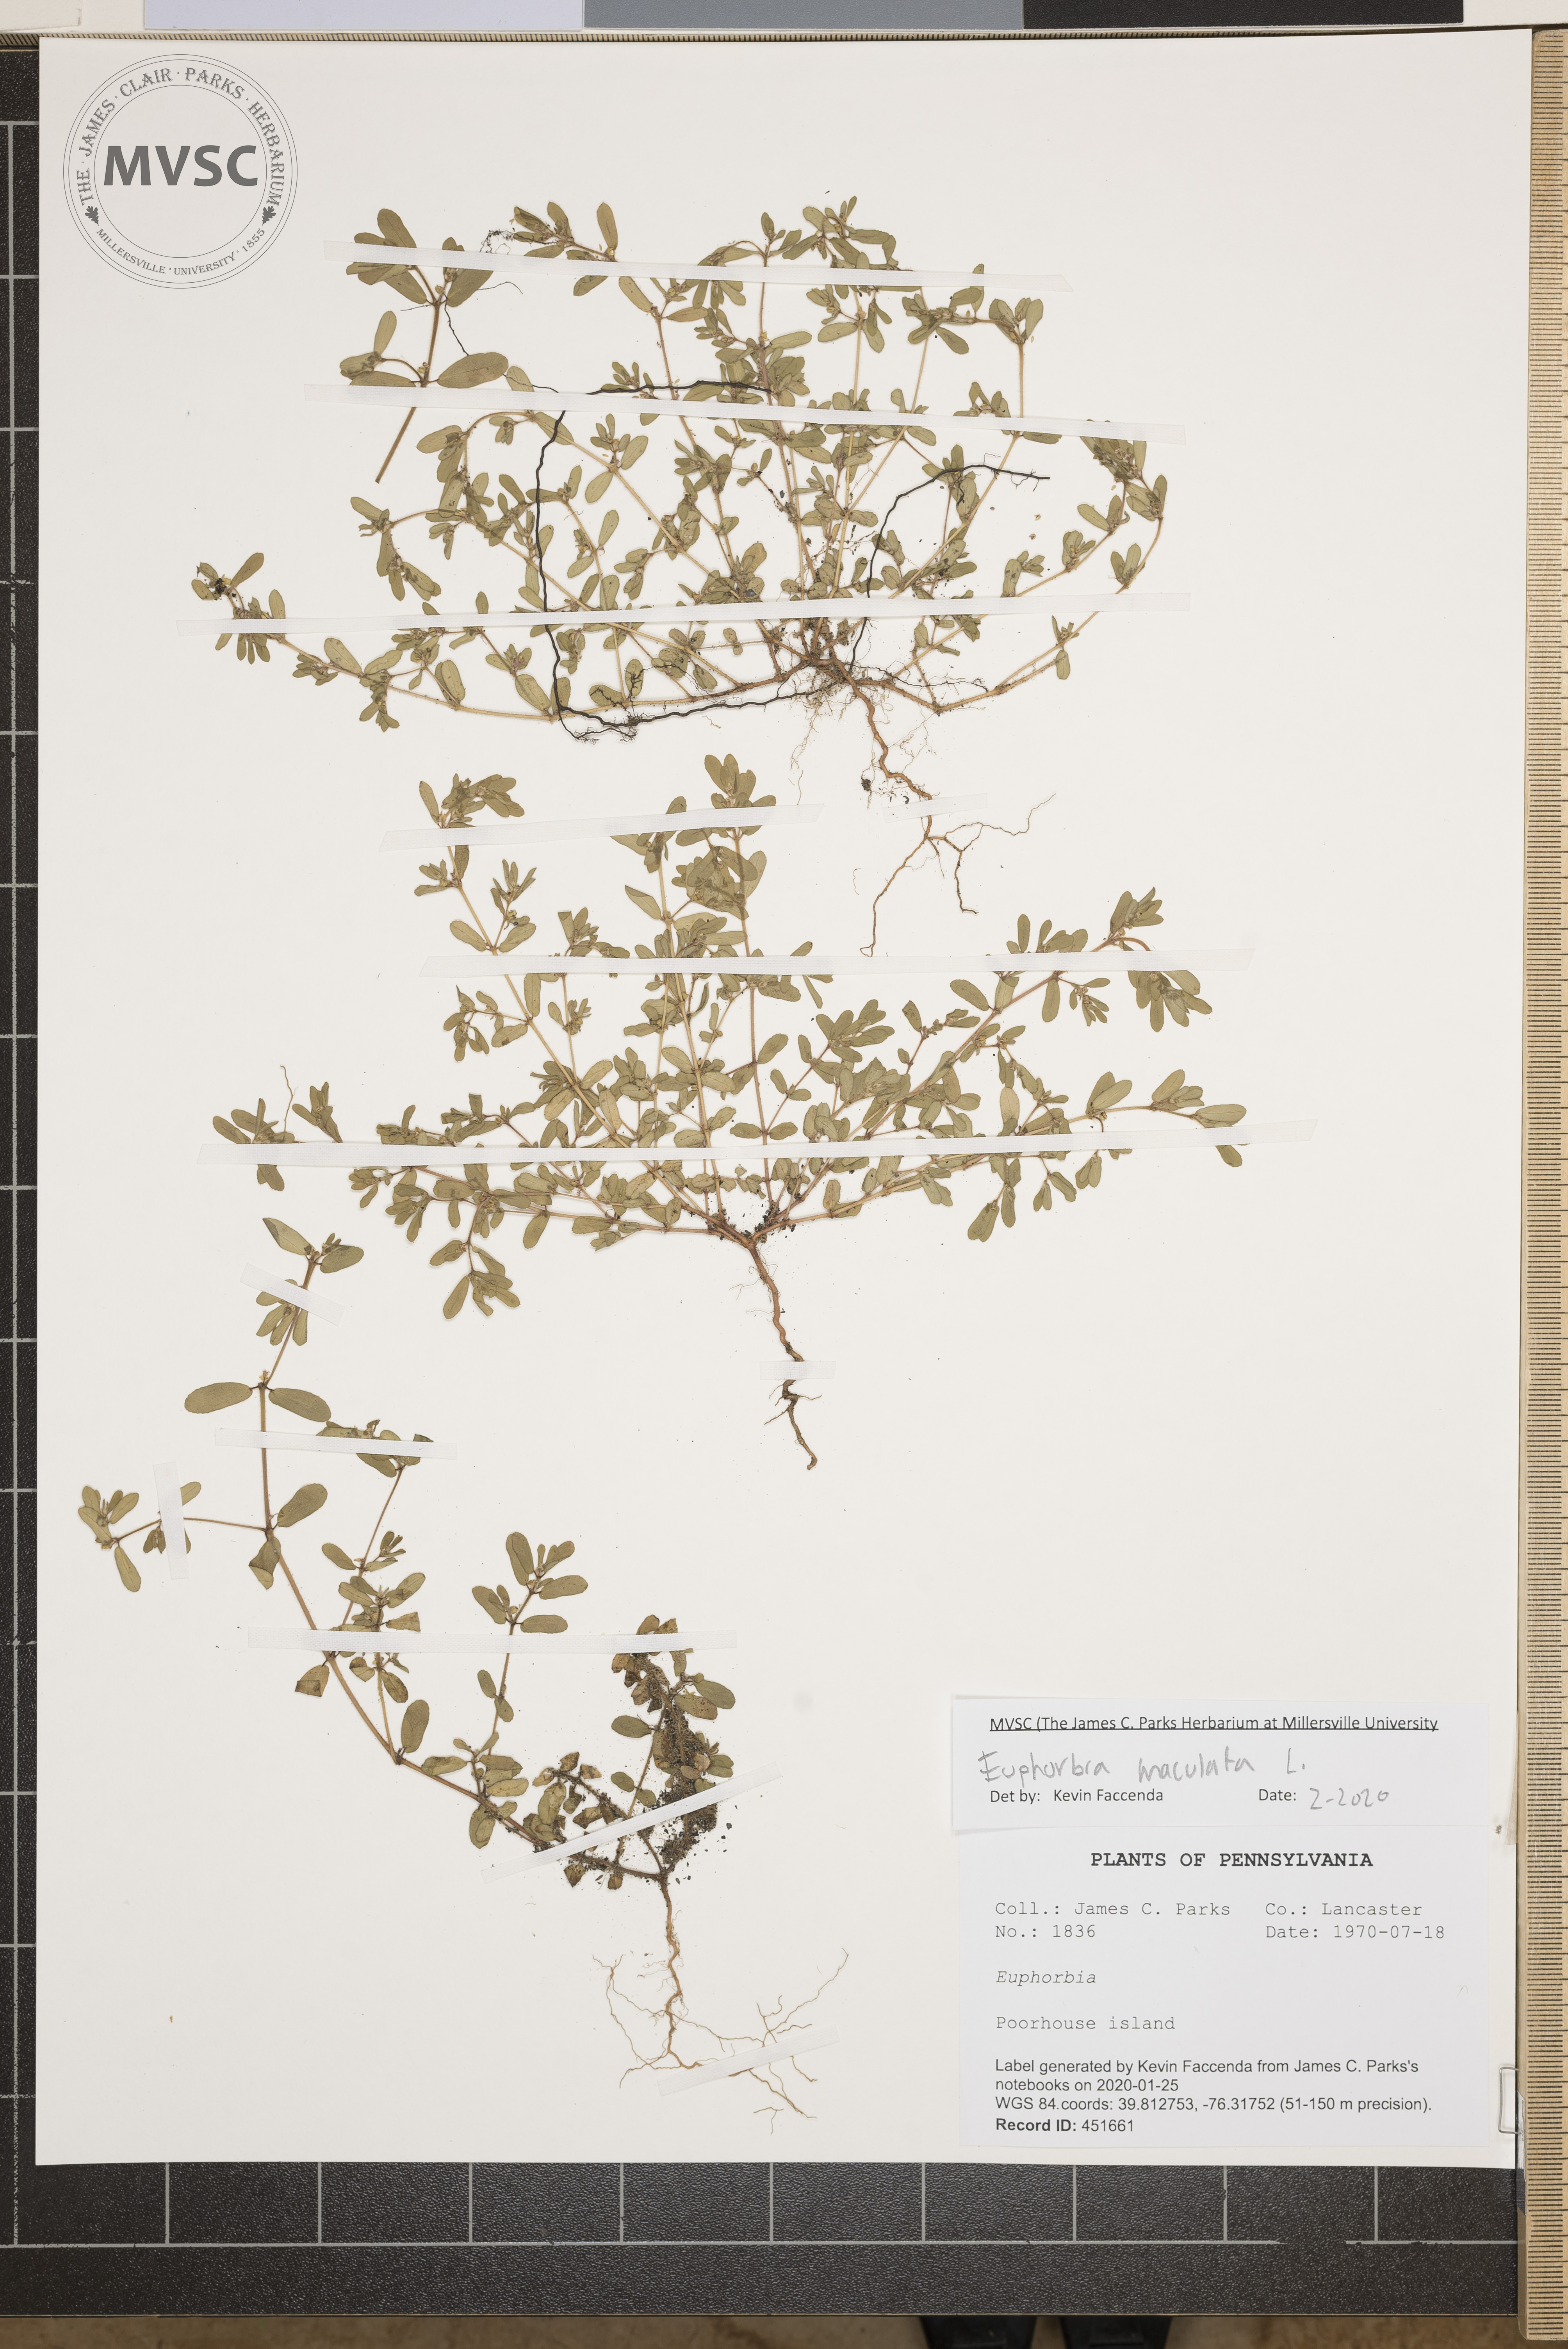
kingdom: Plantae
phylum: Tracheophyta
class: Magnoliopsida
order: Malpighiales
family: Euphorbiaceae
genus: Euphorbia
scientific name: Euphorbia maculata
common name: Spotted spurge
